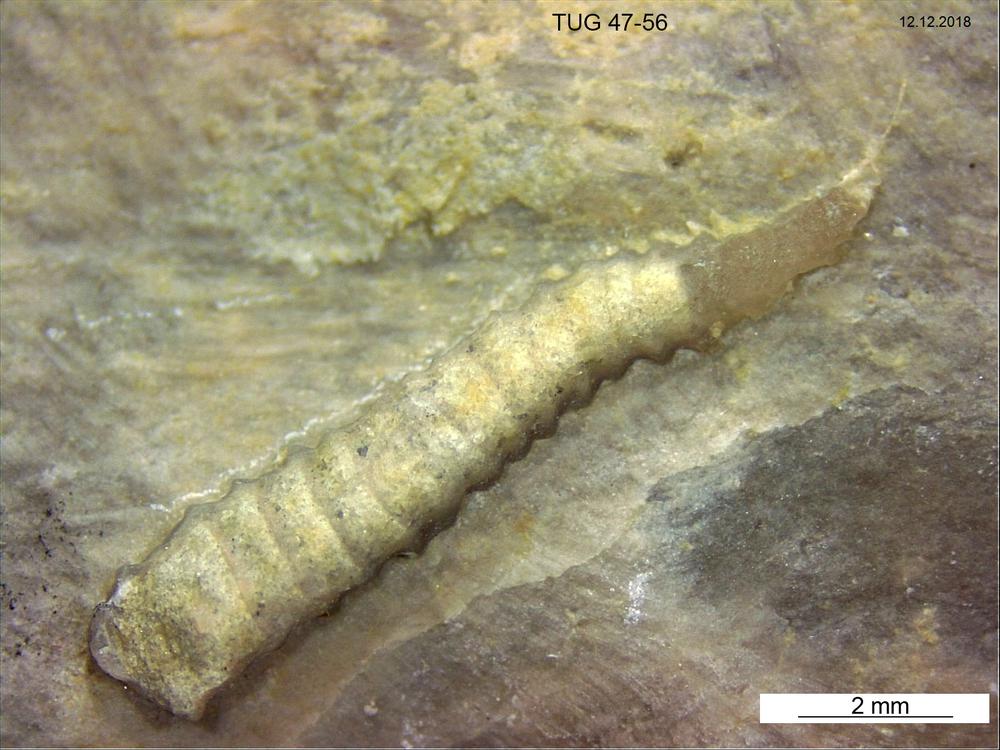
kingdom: Animalia
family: Cornulitidae
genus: Cornulites
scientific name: Cornulites
